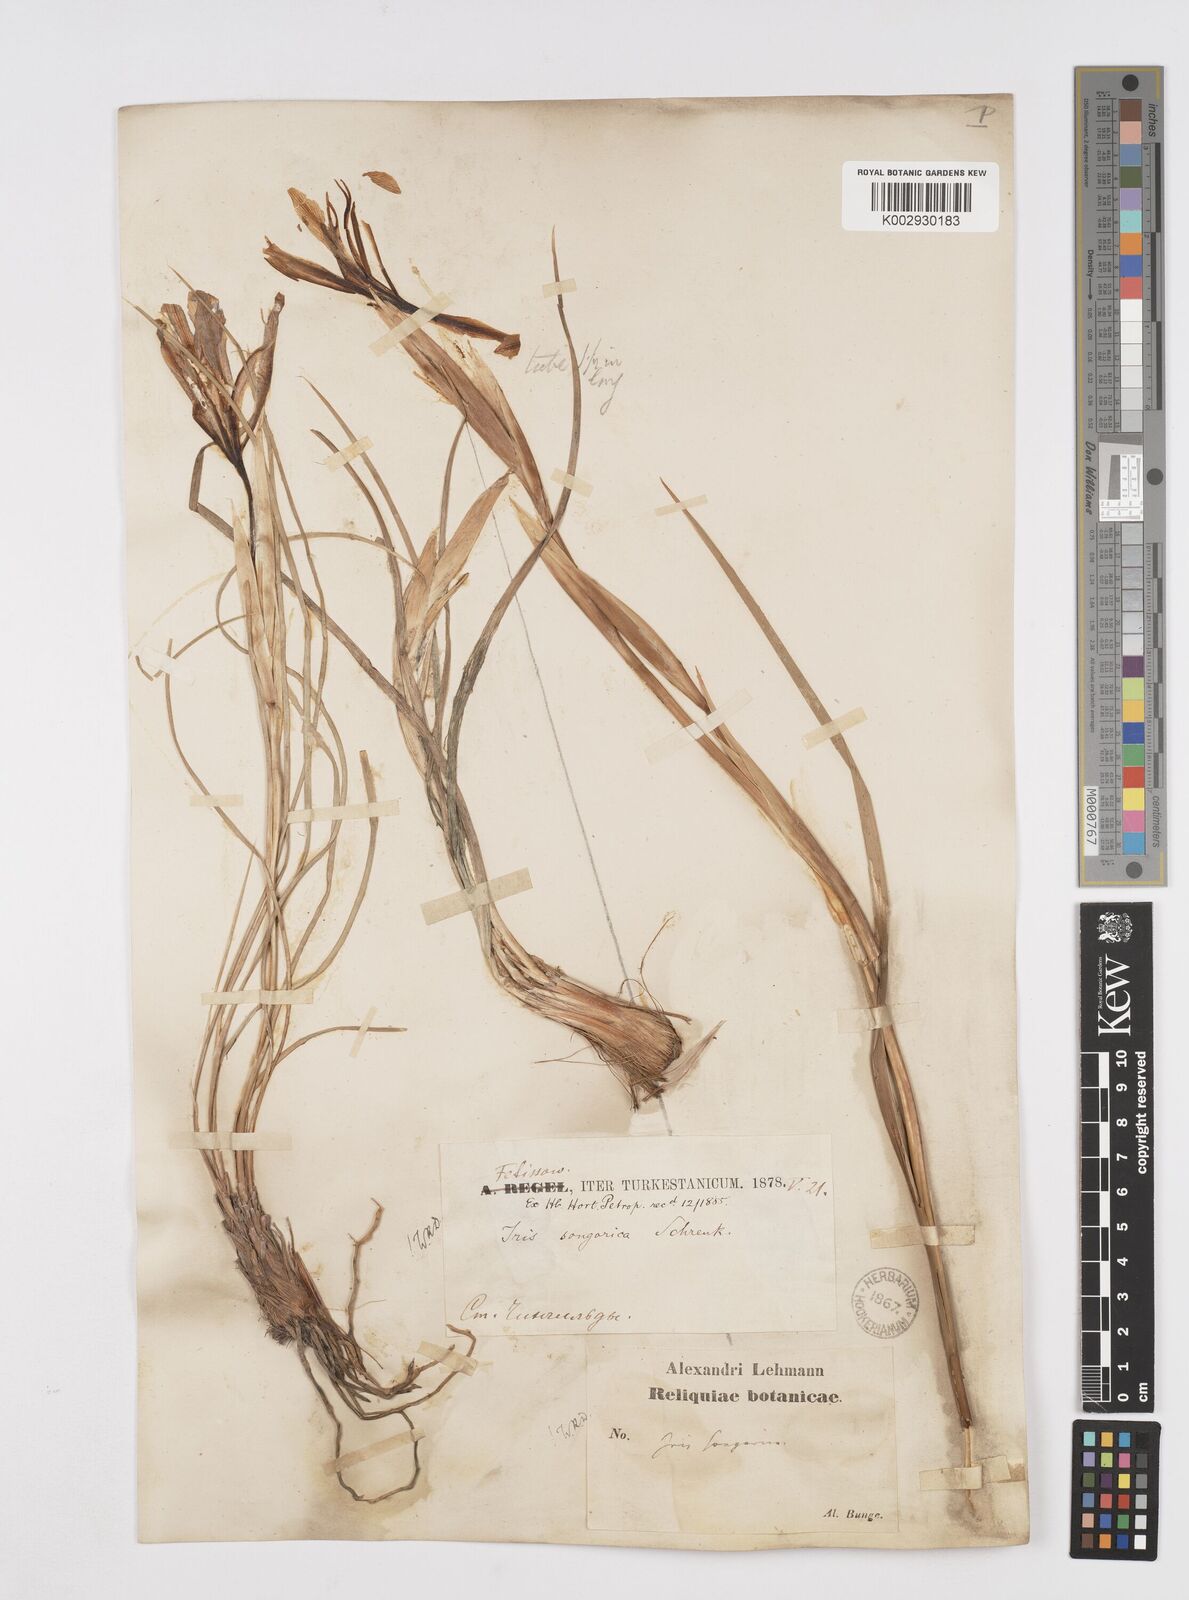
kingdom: Plantae
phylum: Tracheophyta
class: Liliopsida
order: Asparagales
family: Iridaceae
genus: Iris
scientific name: Iris songarica
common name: Songar iris
